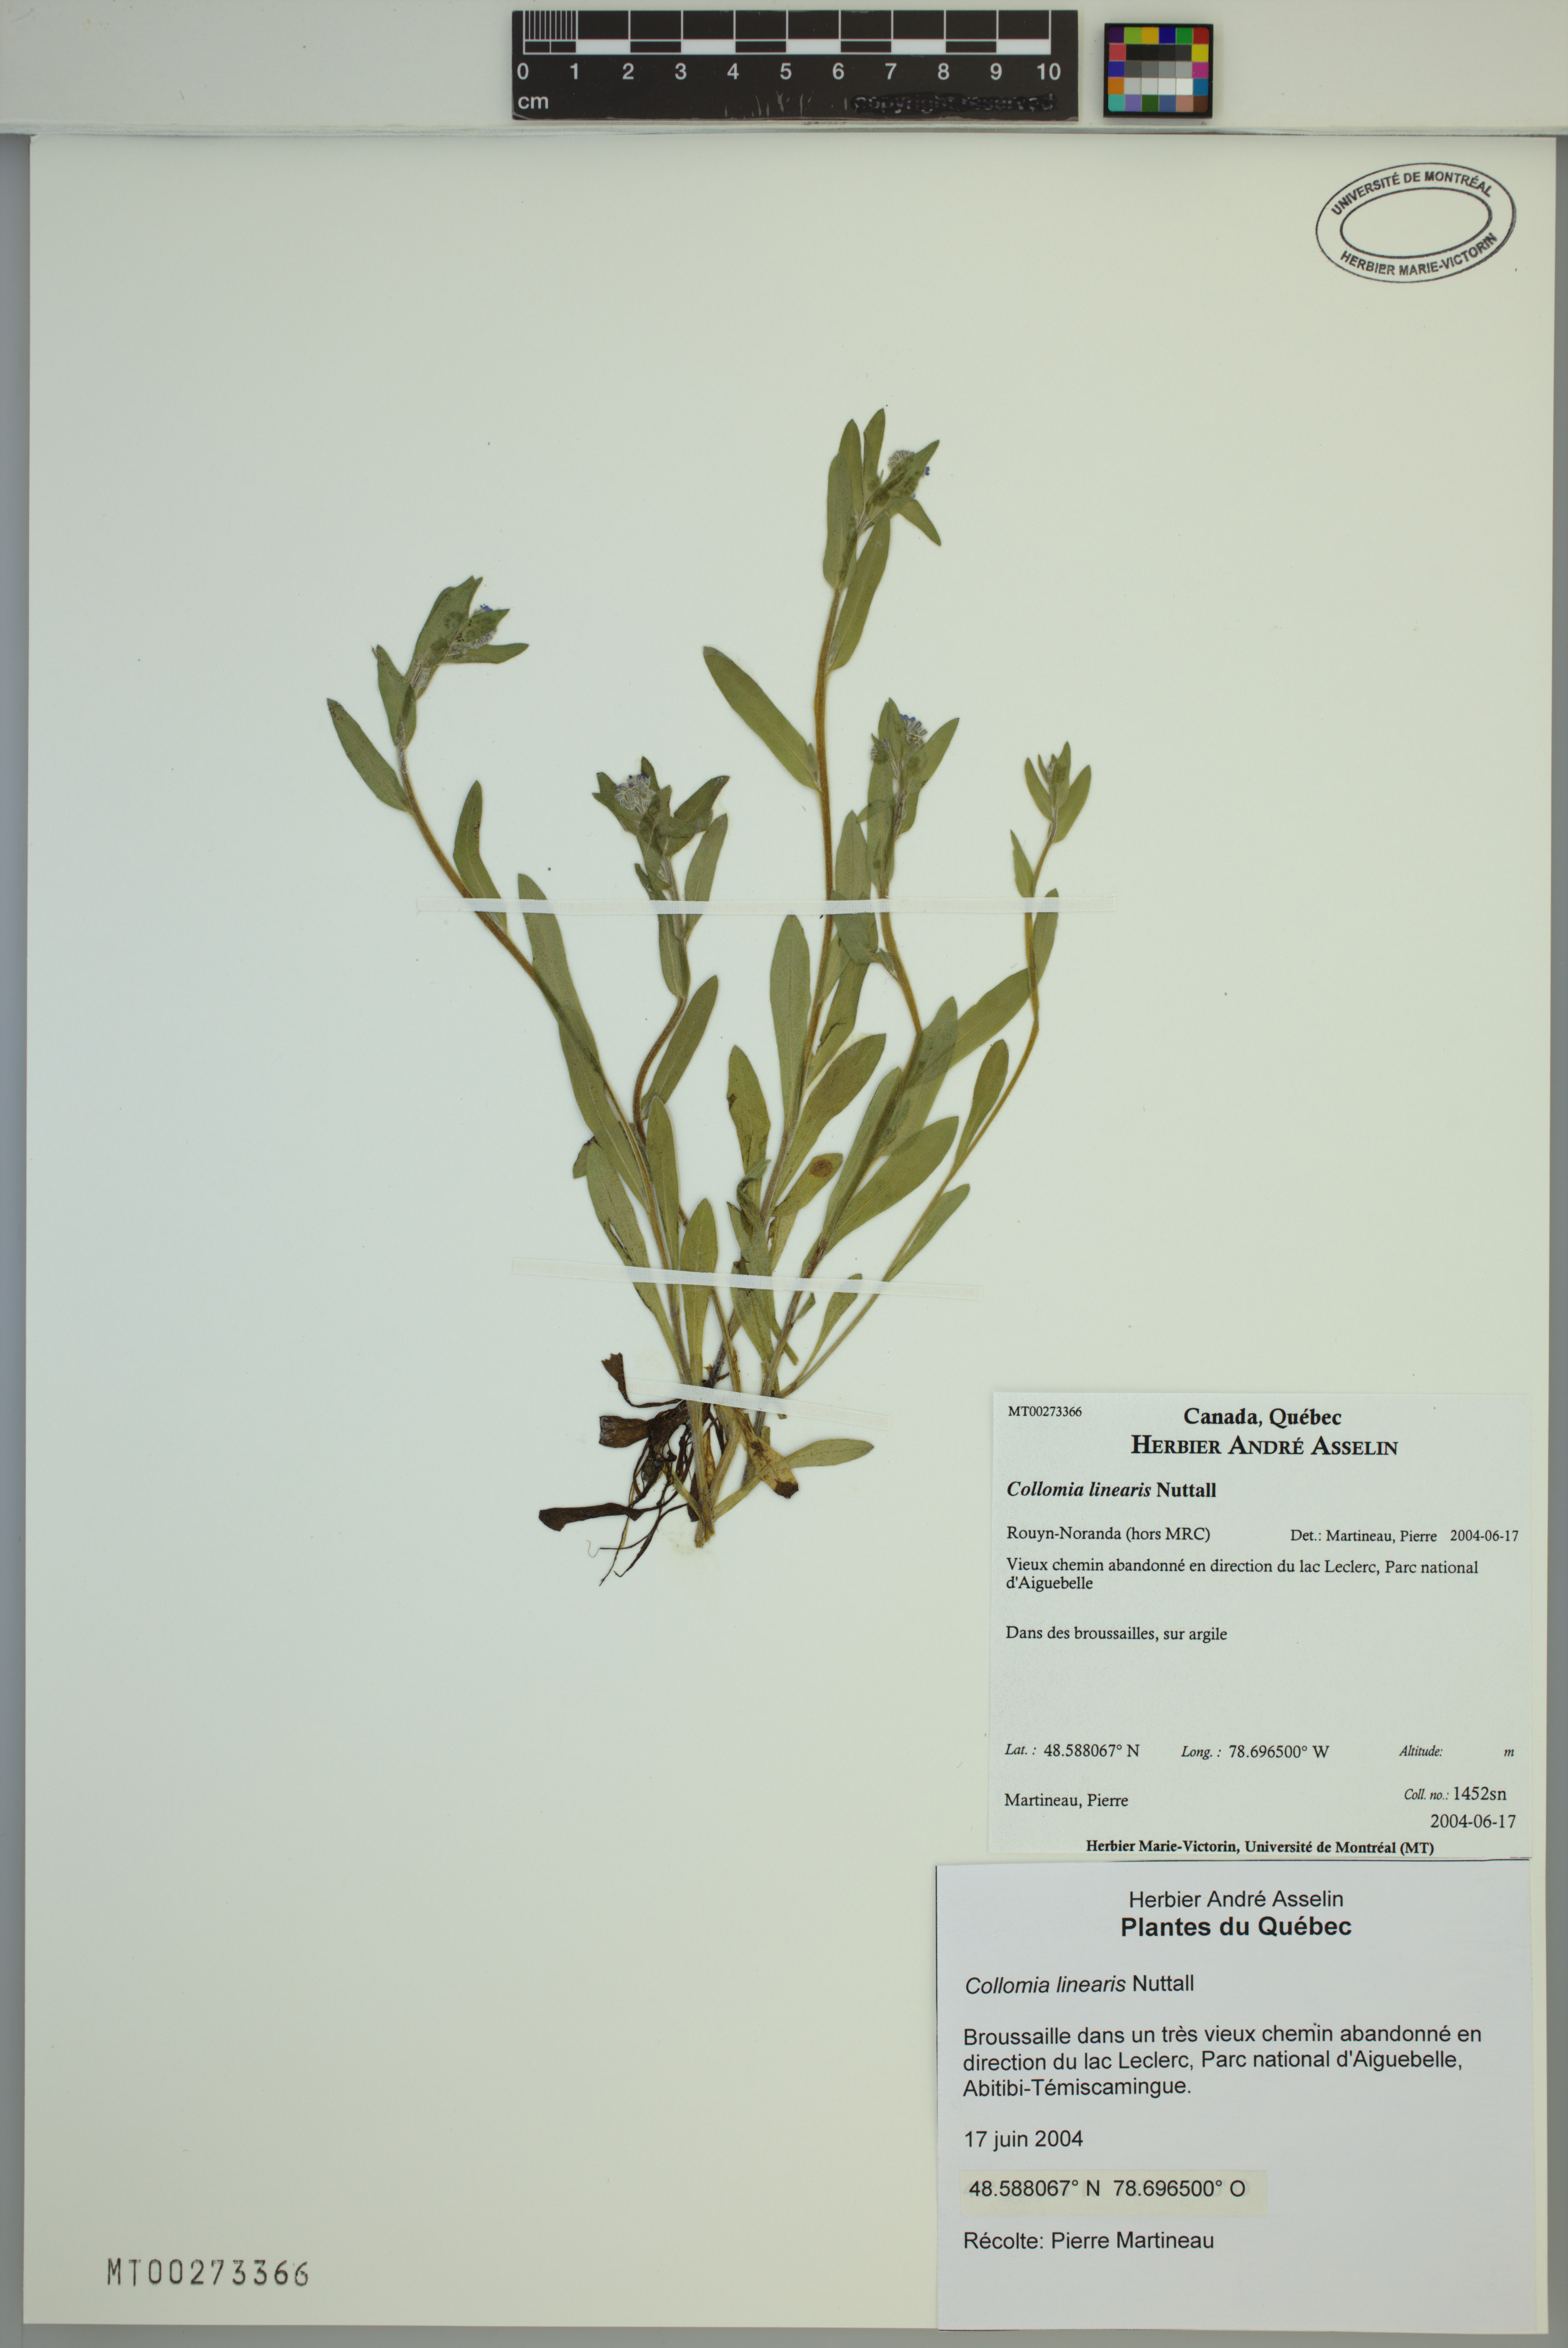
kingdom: Plantae
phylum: Tracheophyta
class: Magnoliopsida
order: Ericales
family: Polemoniaceae
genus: Collomia
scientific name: Collomia linearis
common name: Tiny trumpet
